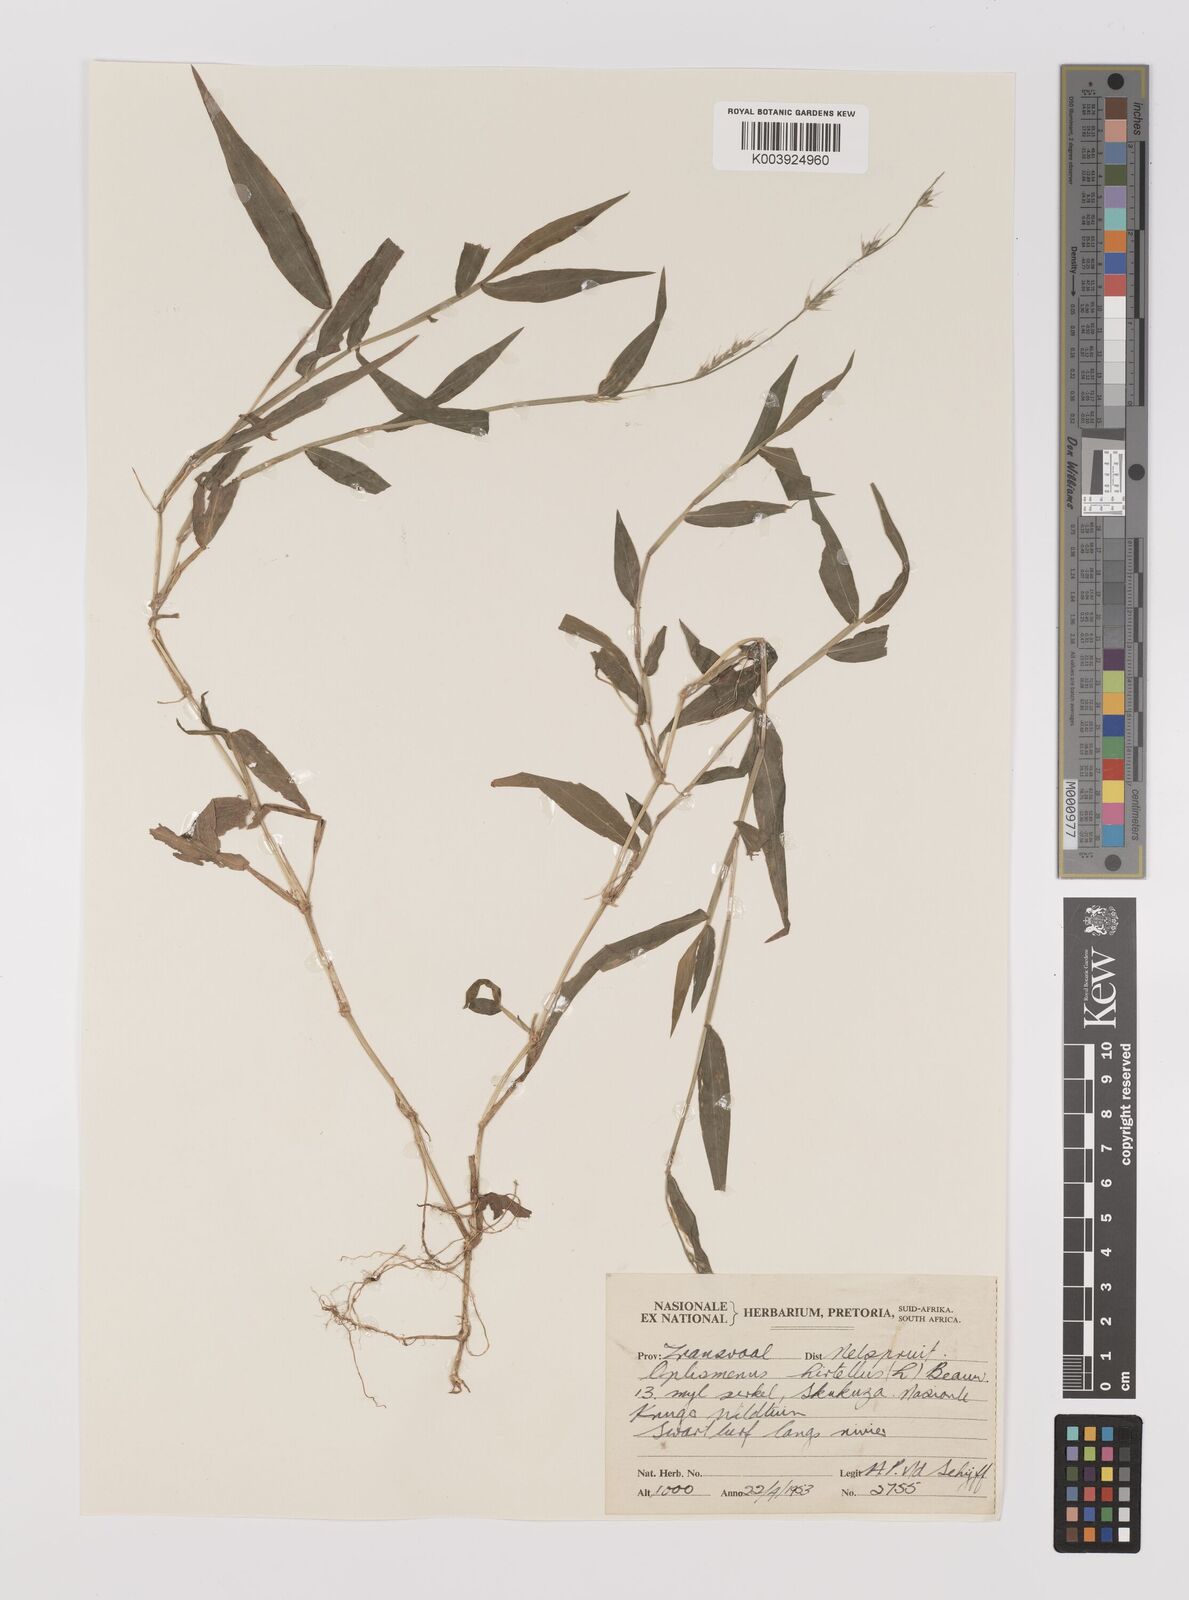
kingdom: Plantae
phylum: Tracheophyta
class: Liliopsida
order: Poales
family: Poaceae
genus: Oplismenus
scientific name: Oplismenus hirtellus
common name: Basketgrass
